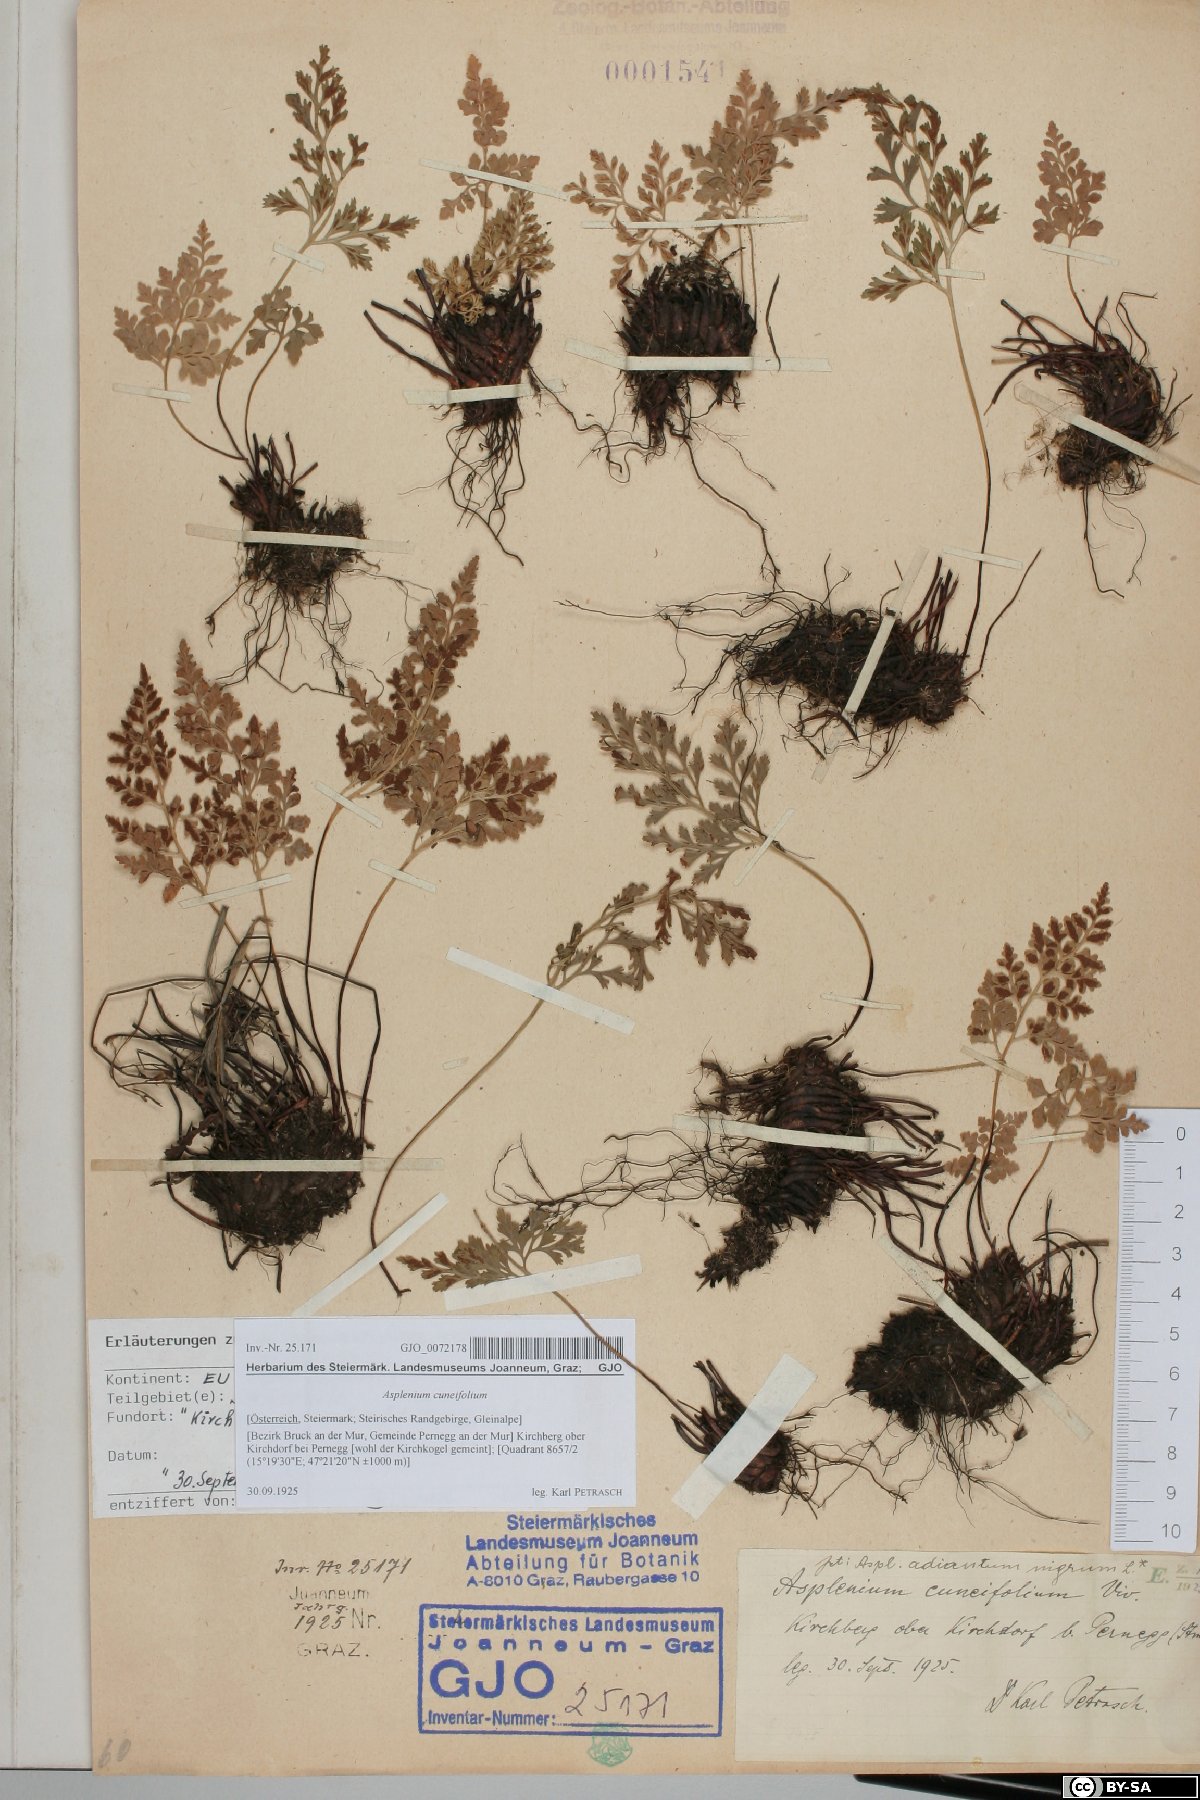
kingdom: Plantae
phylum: Tracheophyta
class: Polypodiopsida
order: Polypodiales
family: Aspleniaceae
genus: Asplenium
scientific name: Asplenium cuneifolium
